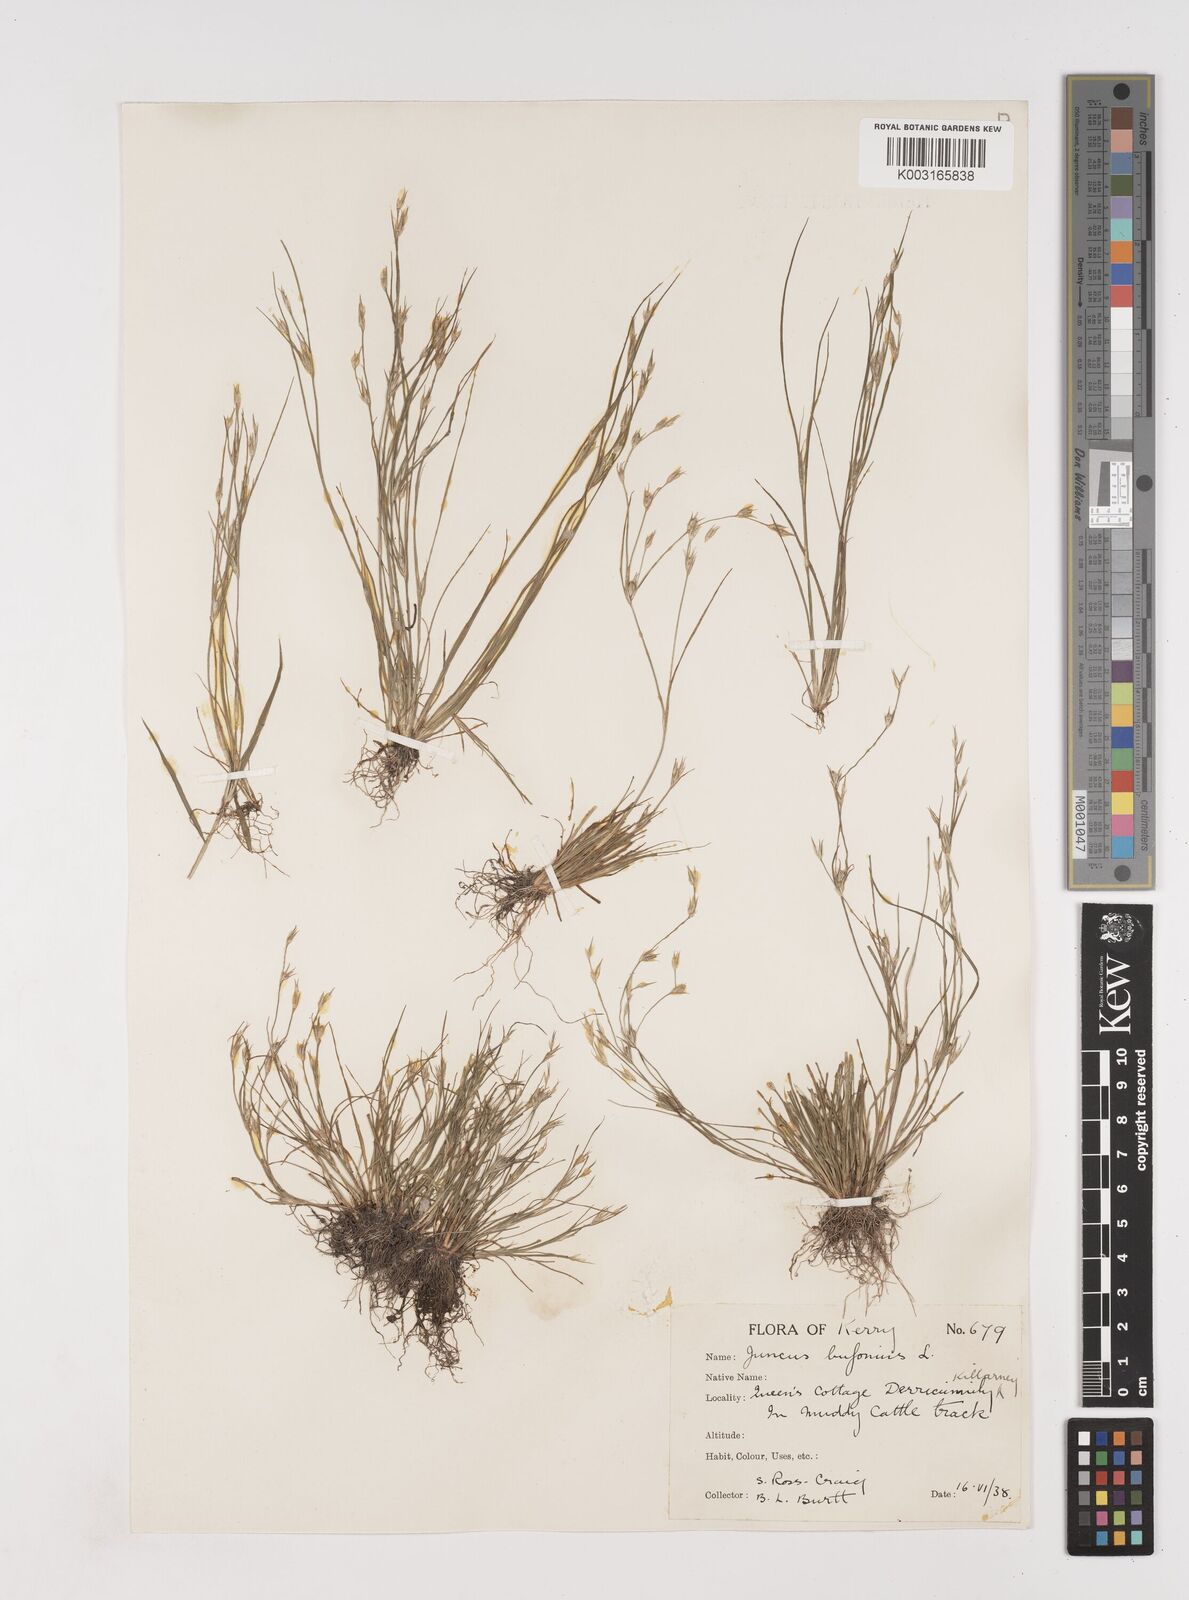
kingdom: Plantae
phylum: Tracheophyta
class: Liliopsida
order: Poales
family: Juncaceae
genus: Juncus
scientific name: Juncus bufonius
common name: Toad rush
